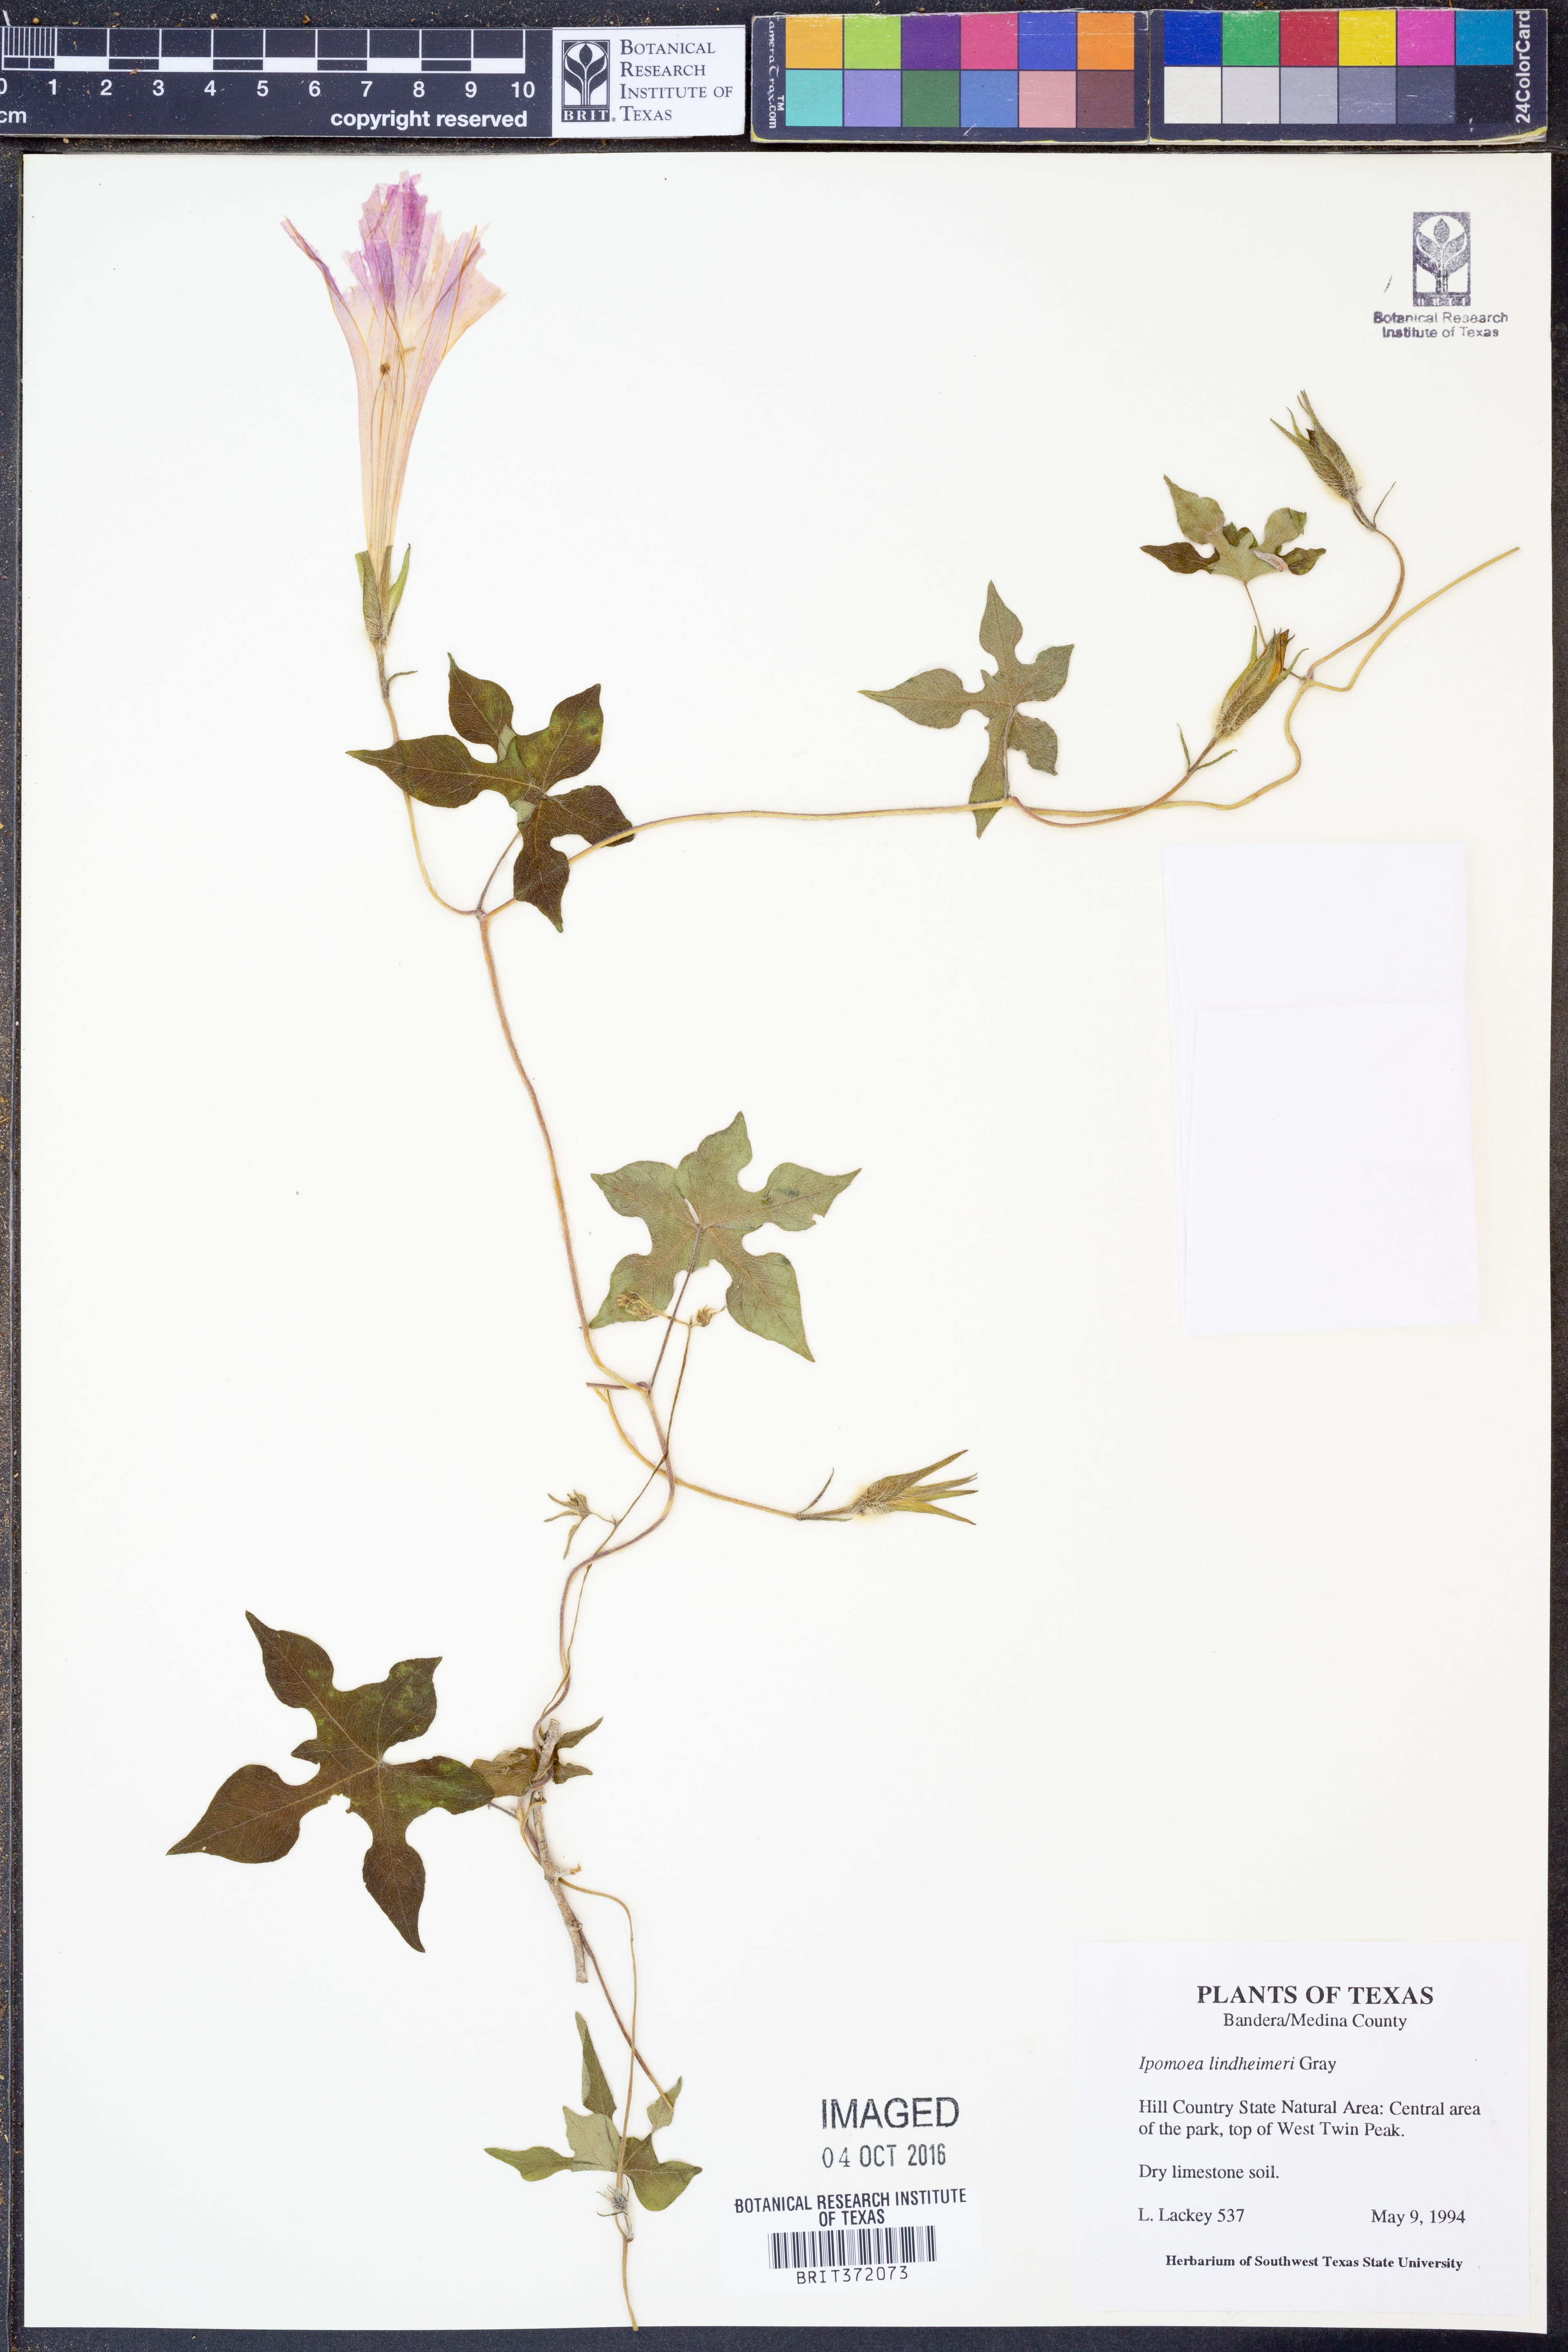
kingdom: Plantae
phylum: Tracheophyta
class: Magnoliopsida
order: Solanales
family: Convolvulaceae
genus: Ipomoea
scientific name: Ipomoea lindheimeri
